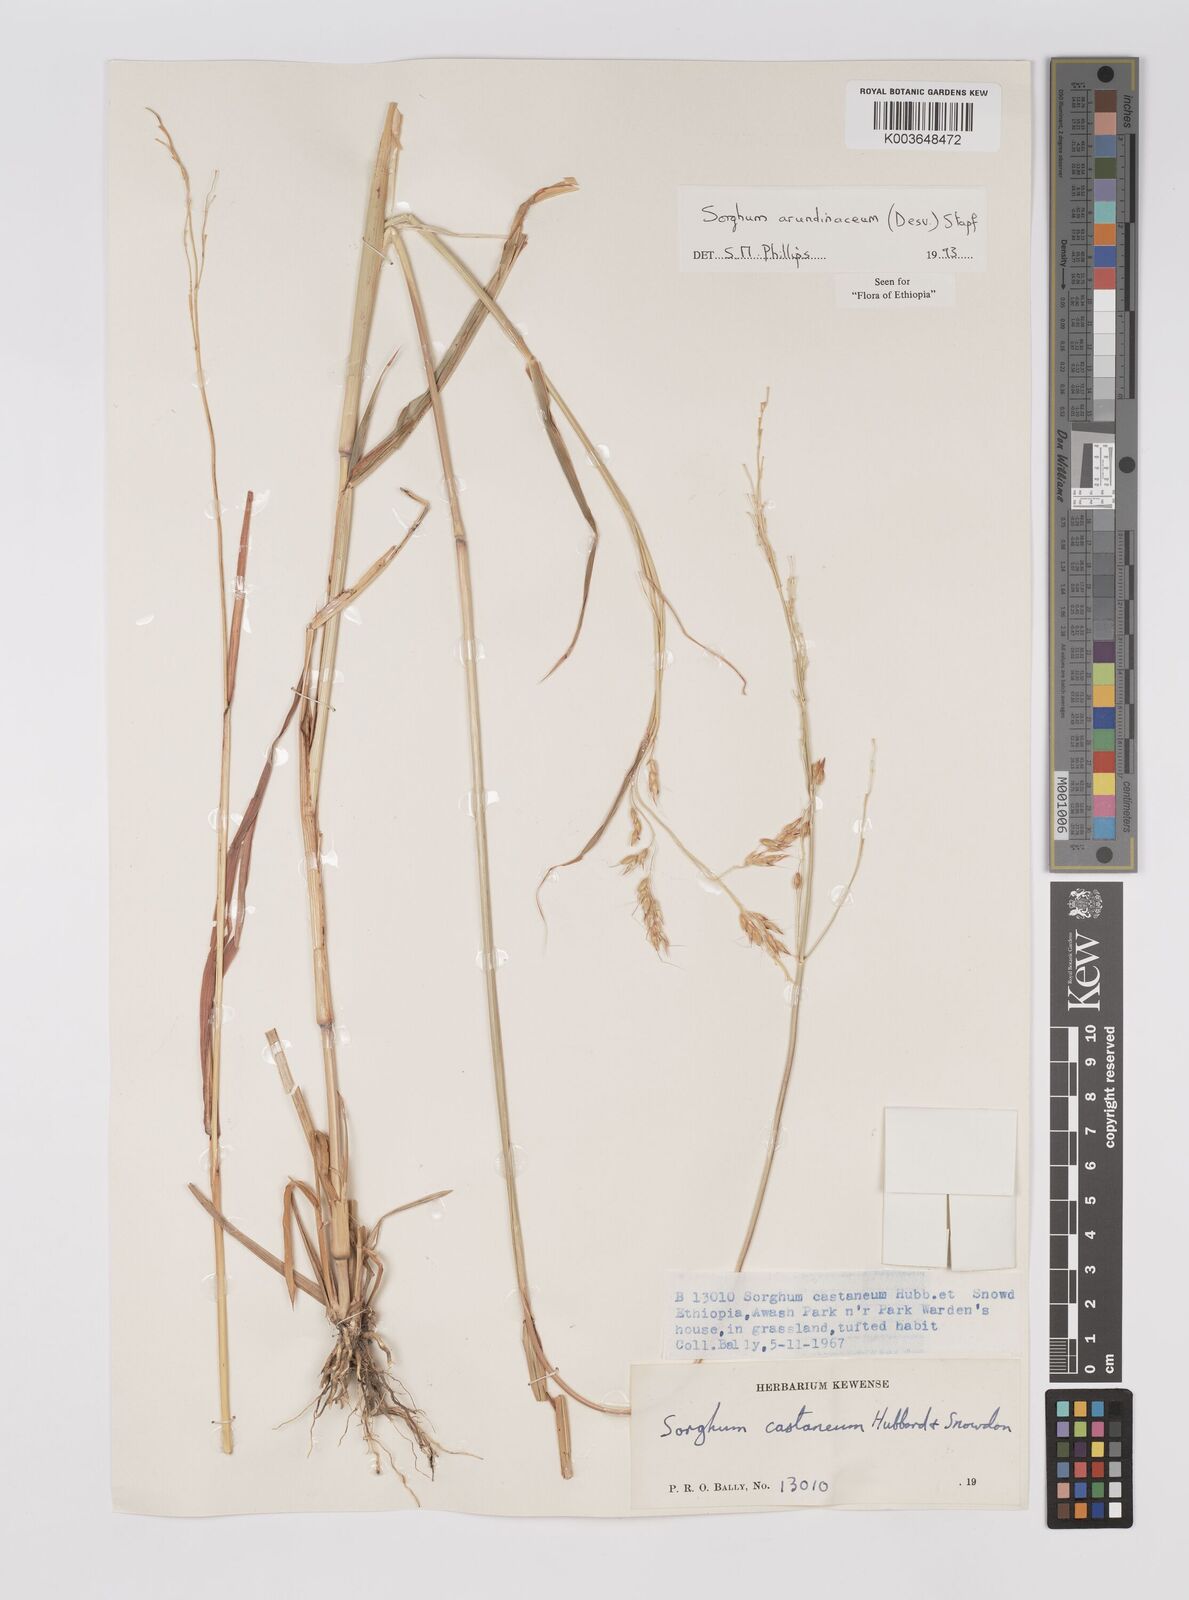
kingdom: Plantae
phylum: Tracheophyta
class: Liliopsida
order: Poales
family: Poaceae
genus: Sorghum
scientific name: Sorghum arundinaceum
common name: Sorghum
